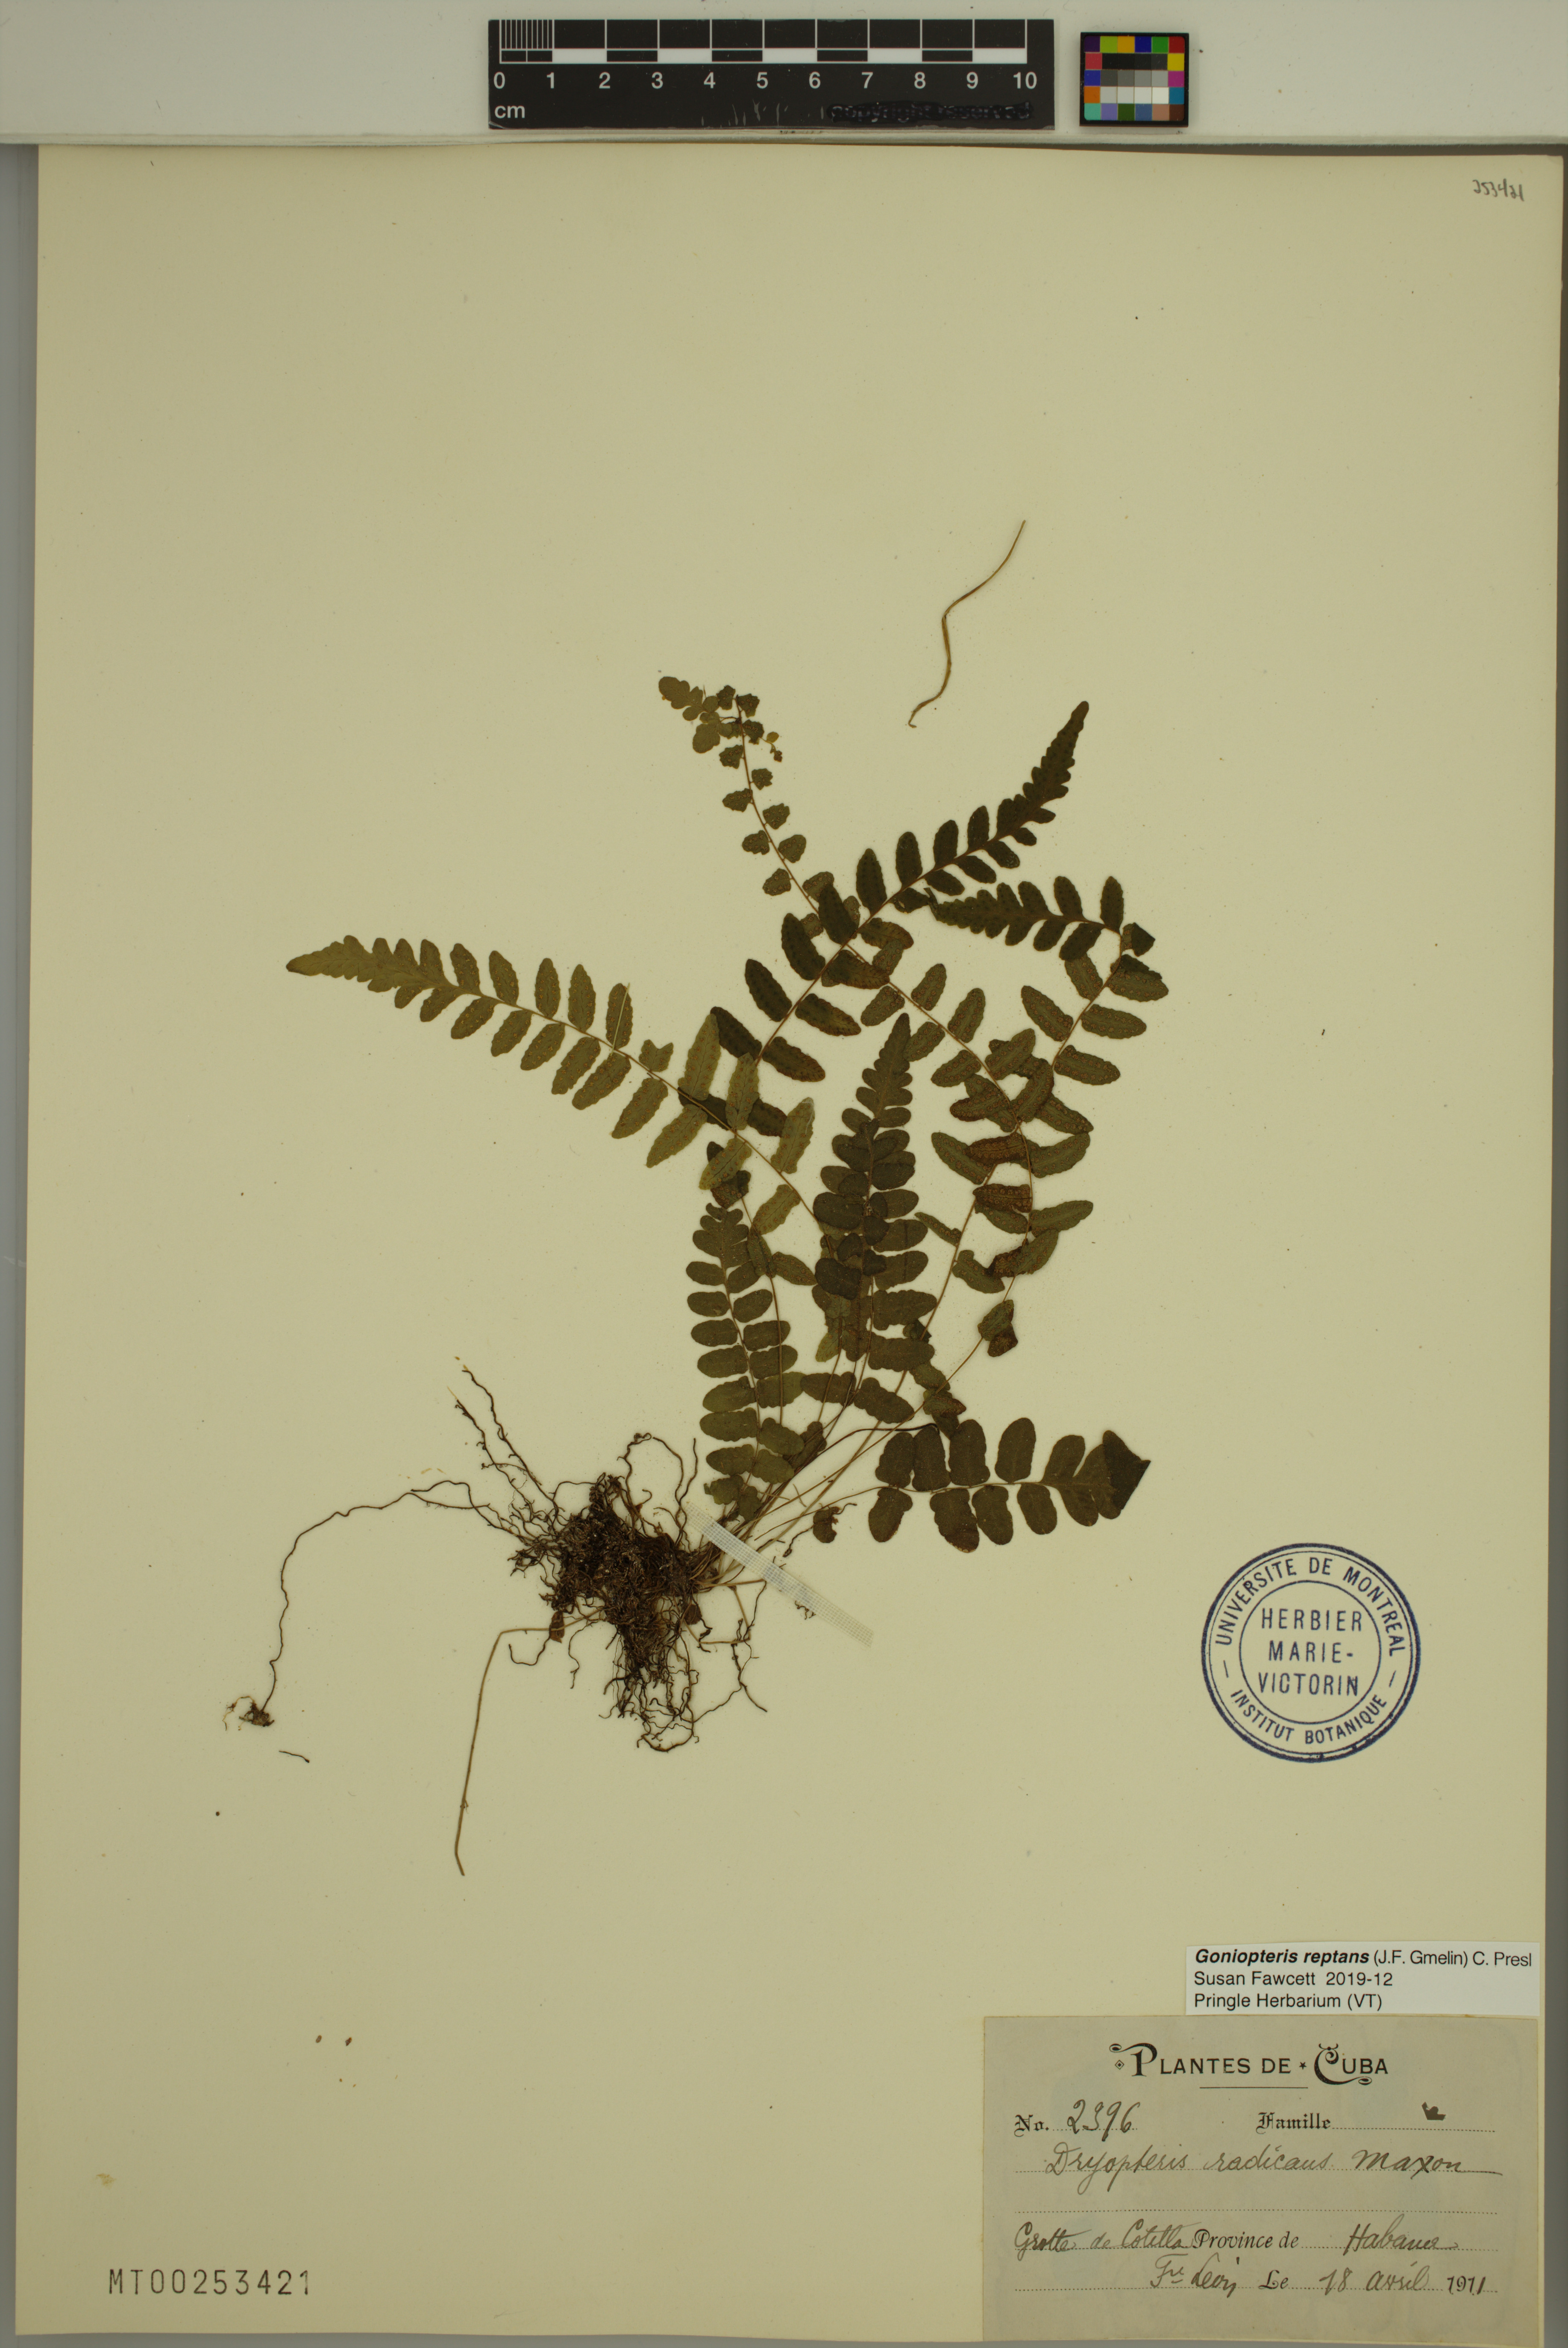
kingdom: Plantae
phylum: Tracheophyta
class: Polypodiopsida
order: Polypodiales
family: Thelypteridaceae
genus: Goniopteris
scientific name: Goniopteris reptans
